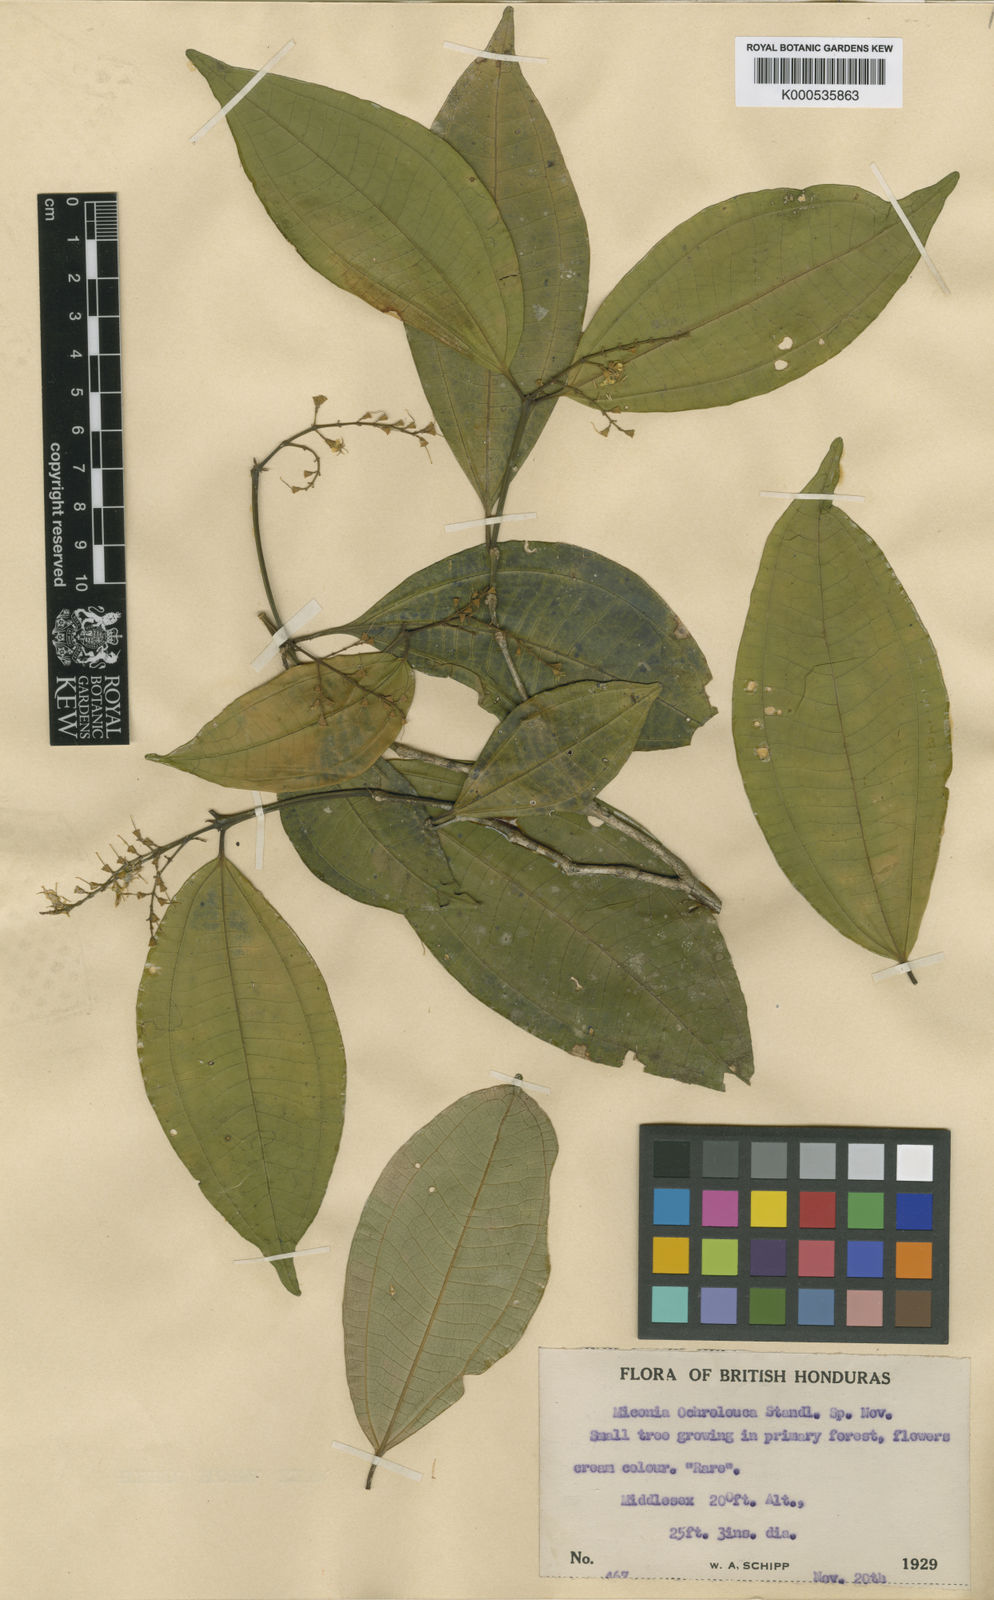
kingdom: Plantae
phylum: Tracheophyta
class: Magnoliopsida
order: Myrtales
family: Melastomataceae
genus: Miconia
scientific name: Miconia gracilis
